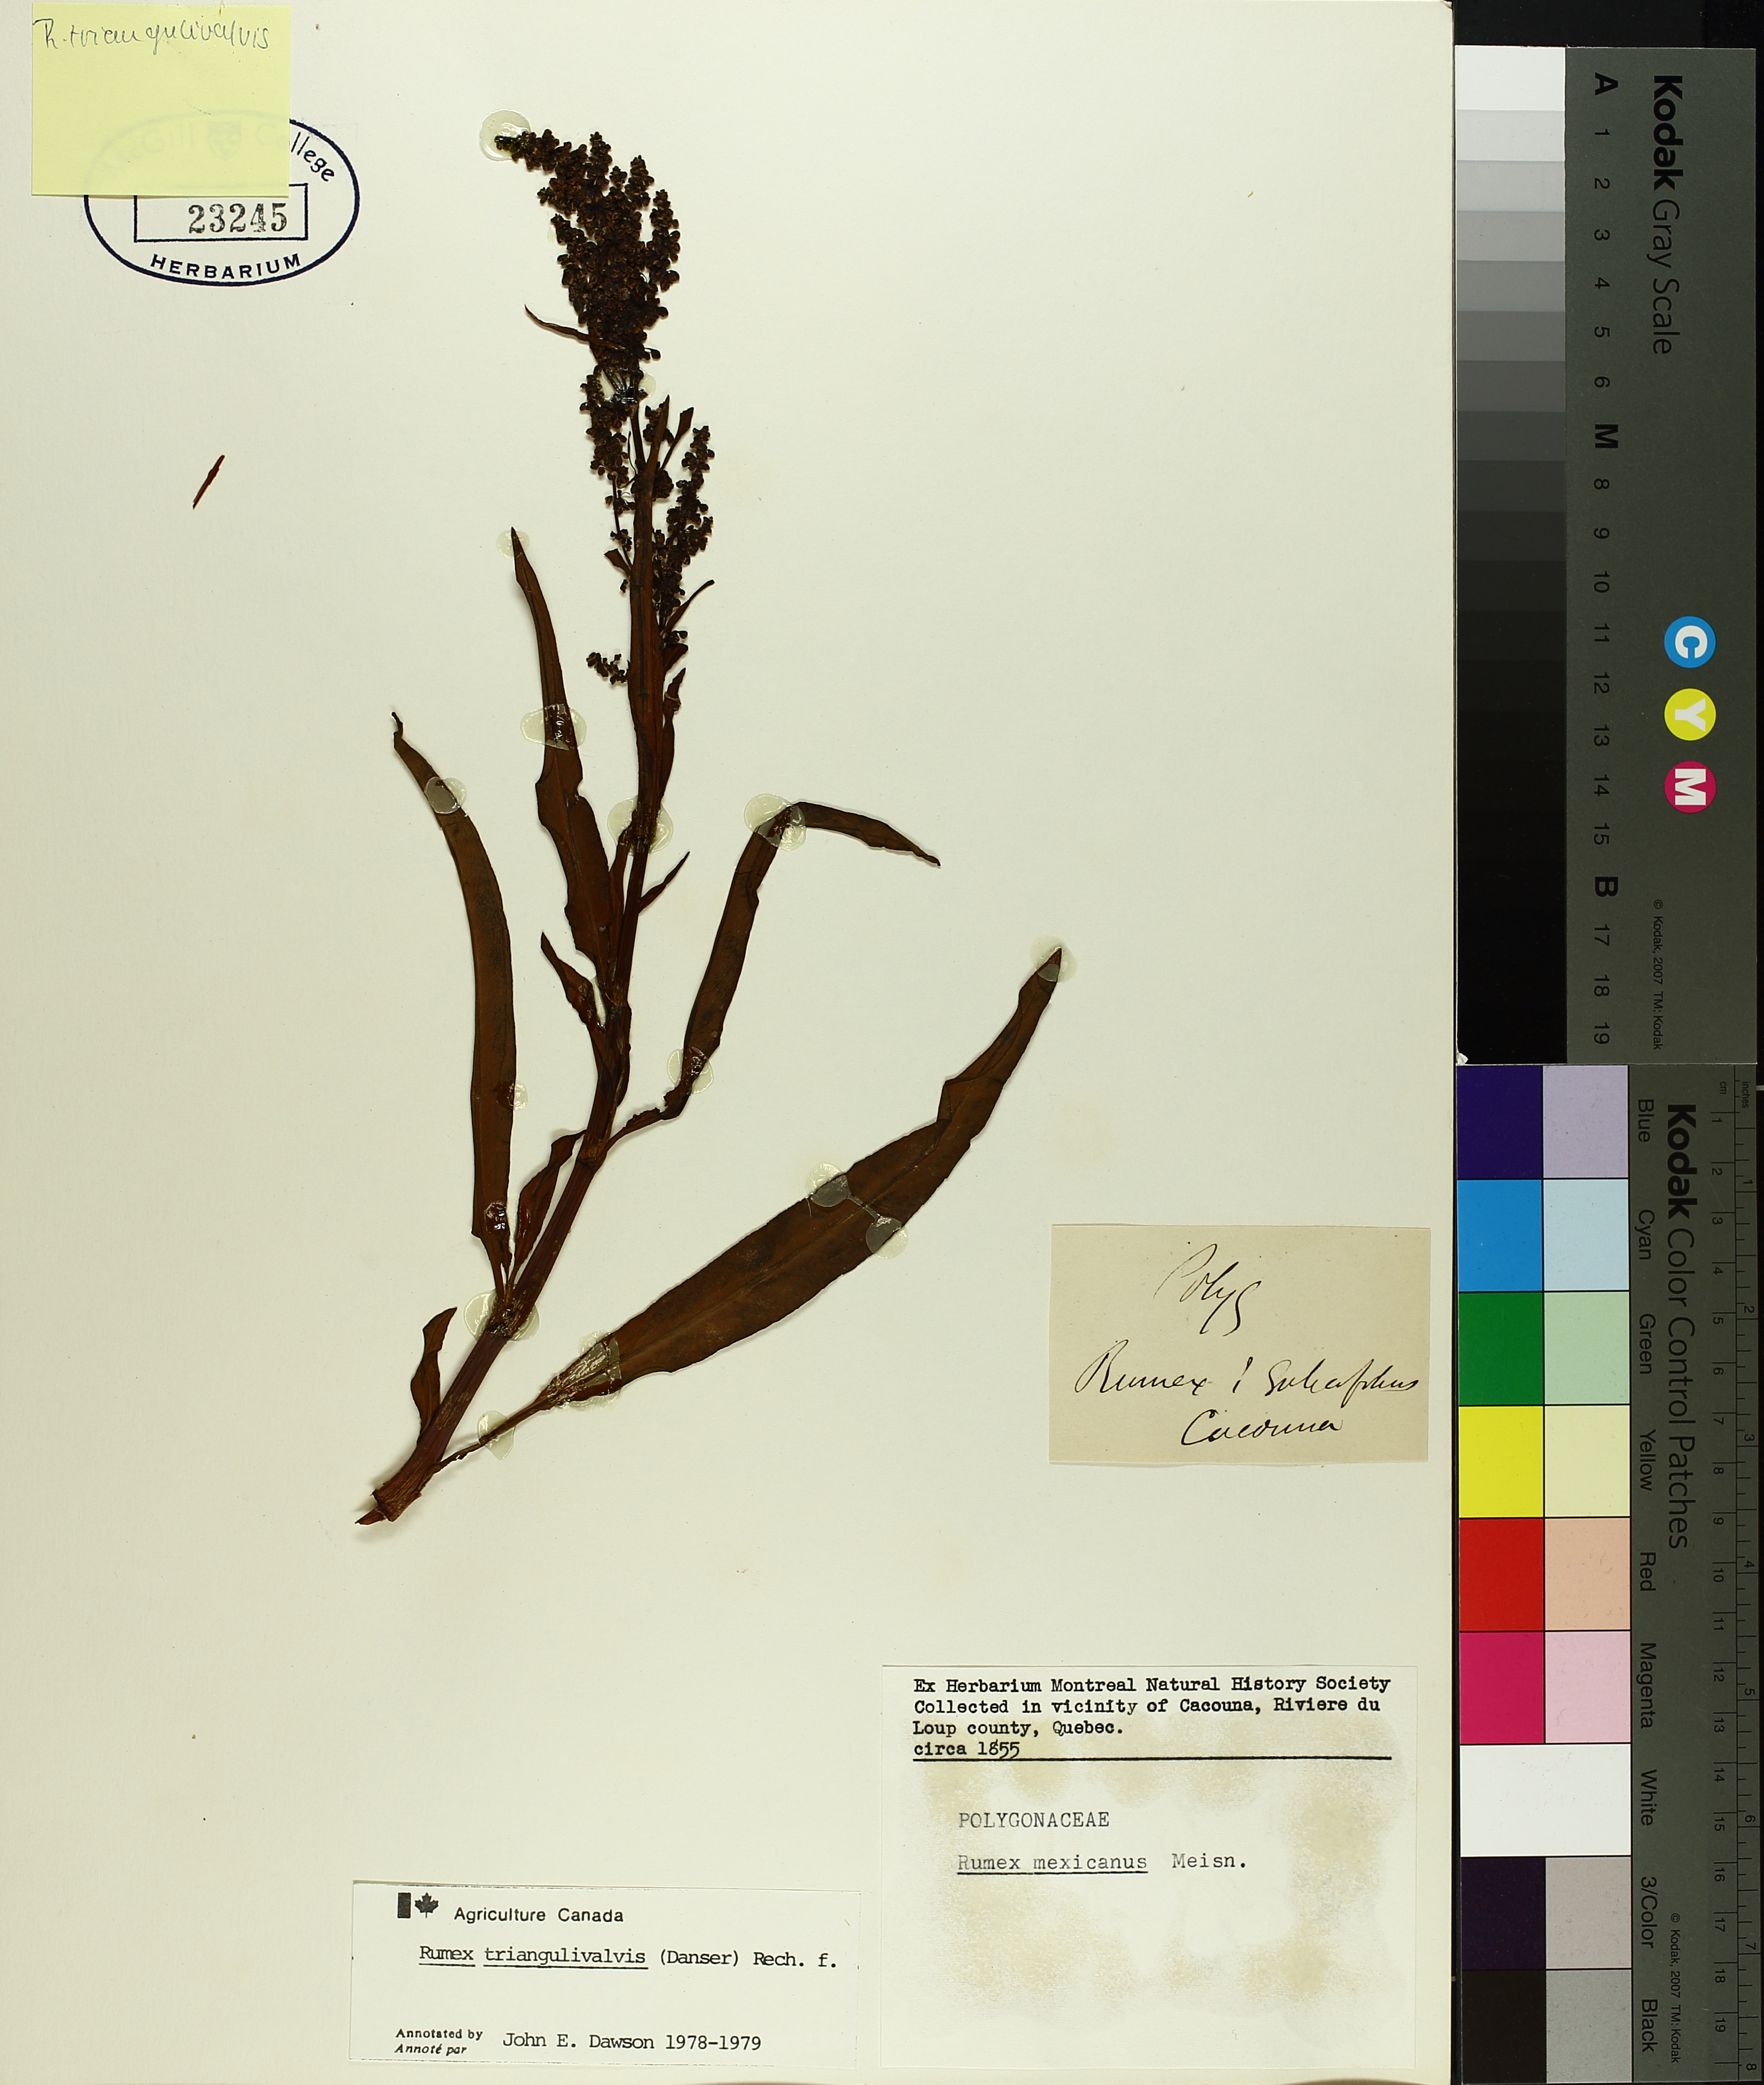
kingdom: Plantae
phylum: Tracheophyta
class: Magnoliopsida
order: Caryophyllales
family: Polygonaceae
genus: Rumex
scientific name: Rumex triangulivalvis
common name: Triangular-valve dock
